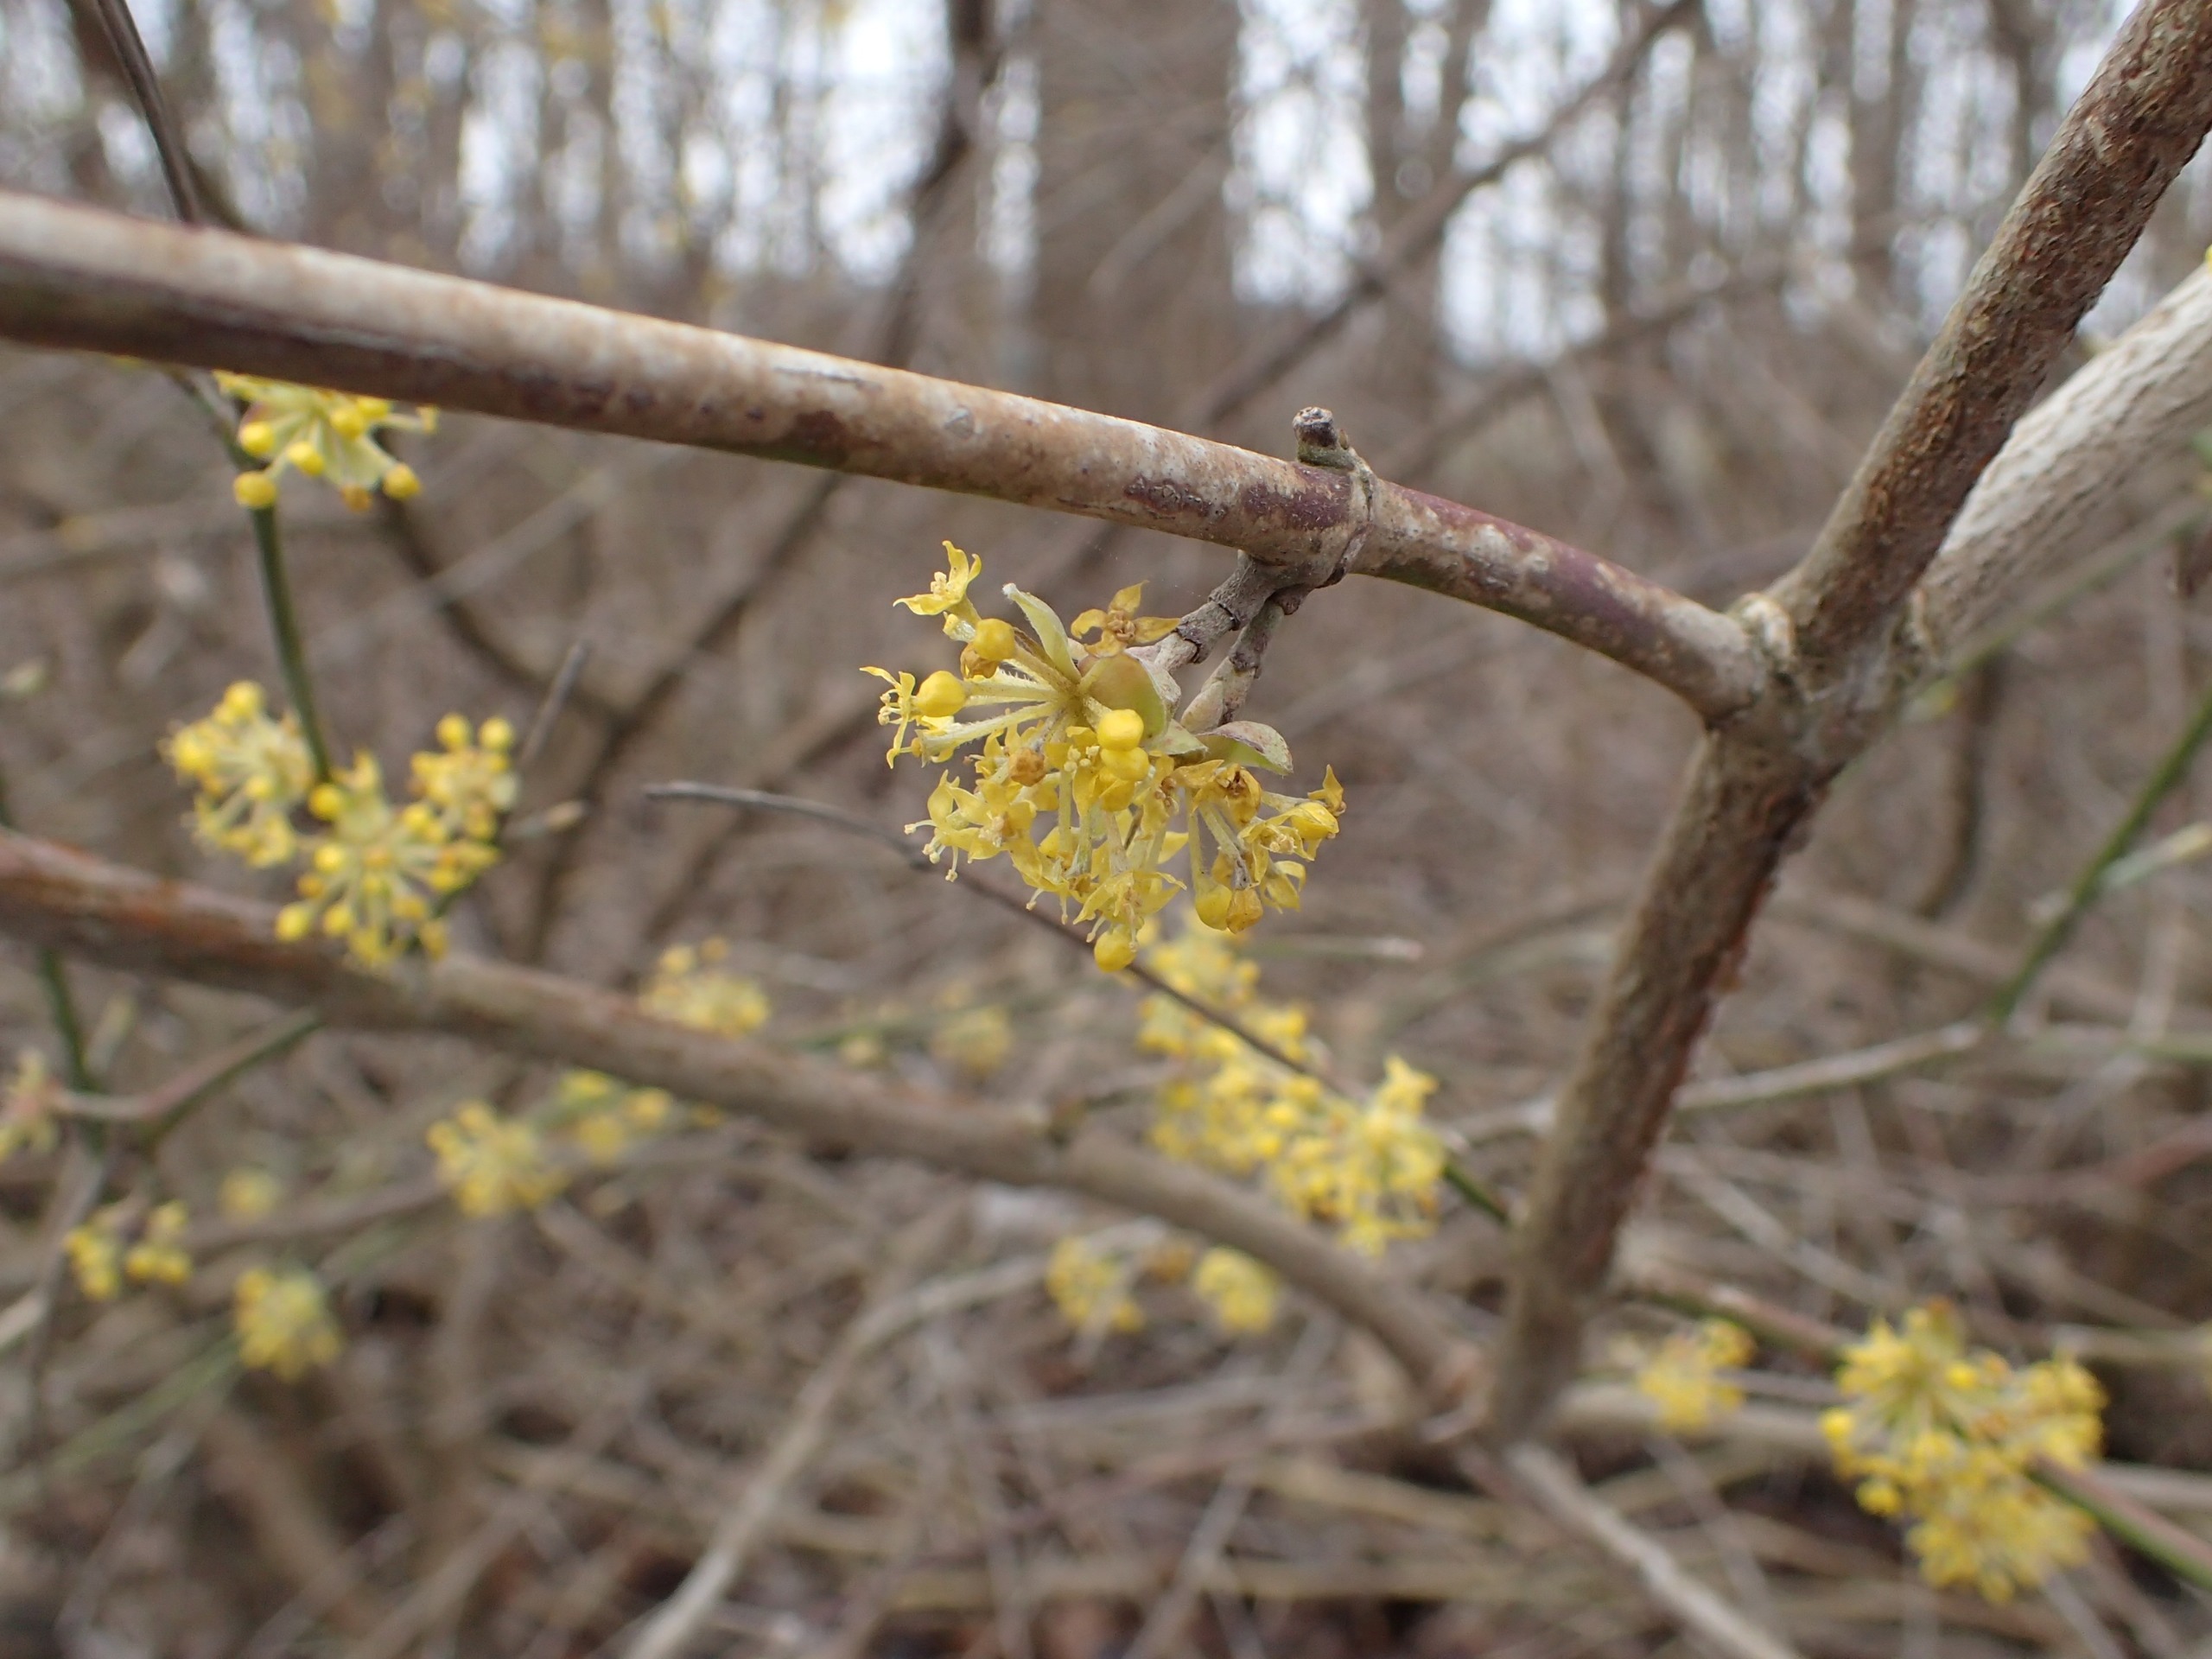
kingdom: Plantae
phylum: Tracheophyta
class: Magnoliopsida
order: Cornales
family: Cornaceae
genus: Cornus
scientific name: Cornus mas
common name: Kirsebær-kornel
